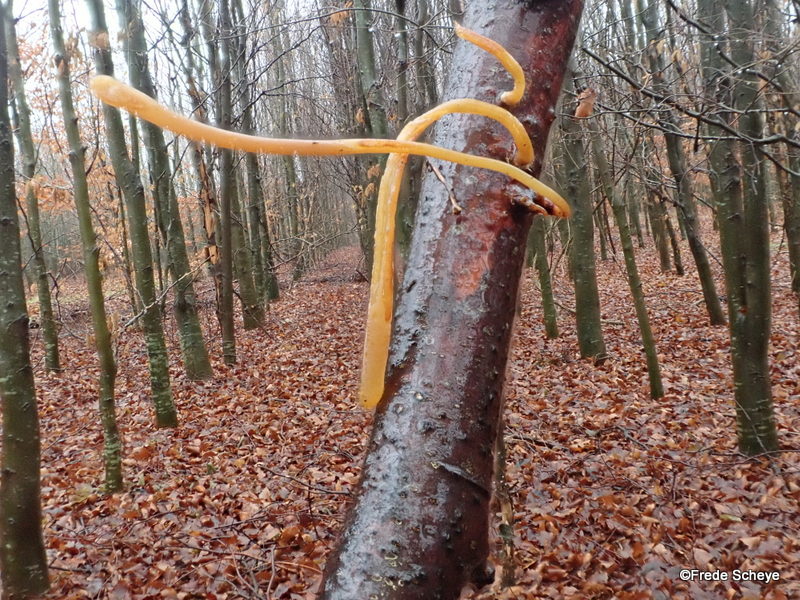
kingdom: Fungi
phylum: Basidiomycota
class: Agaricomycetes
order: Agaricales
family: Typhulaceae
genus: Typhula
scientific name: Typhula fistulosa
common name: pibet rørkølle
